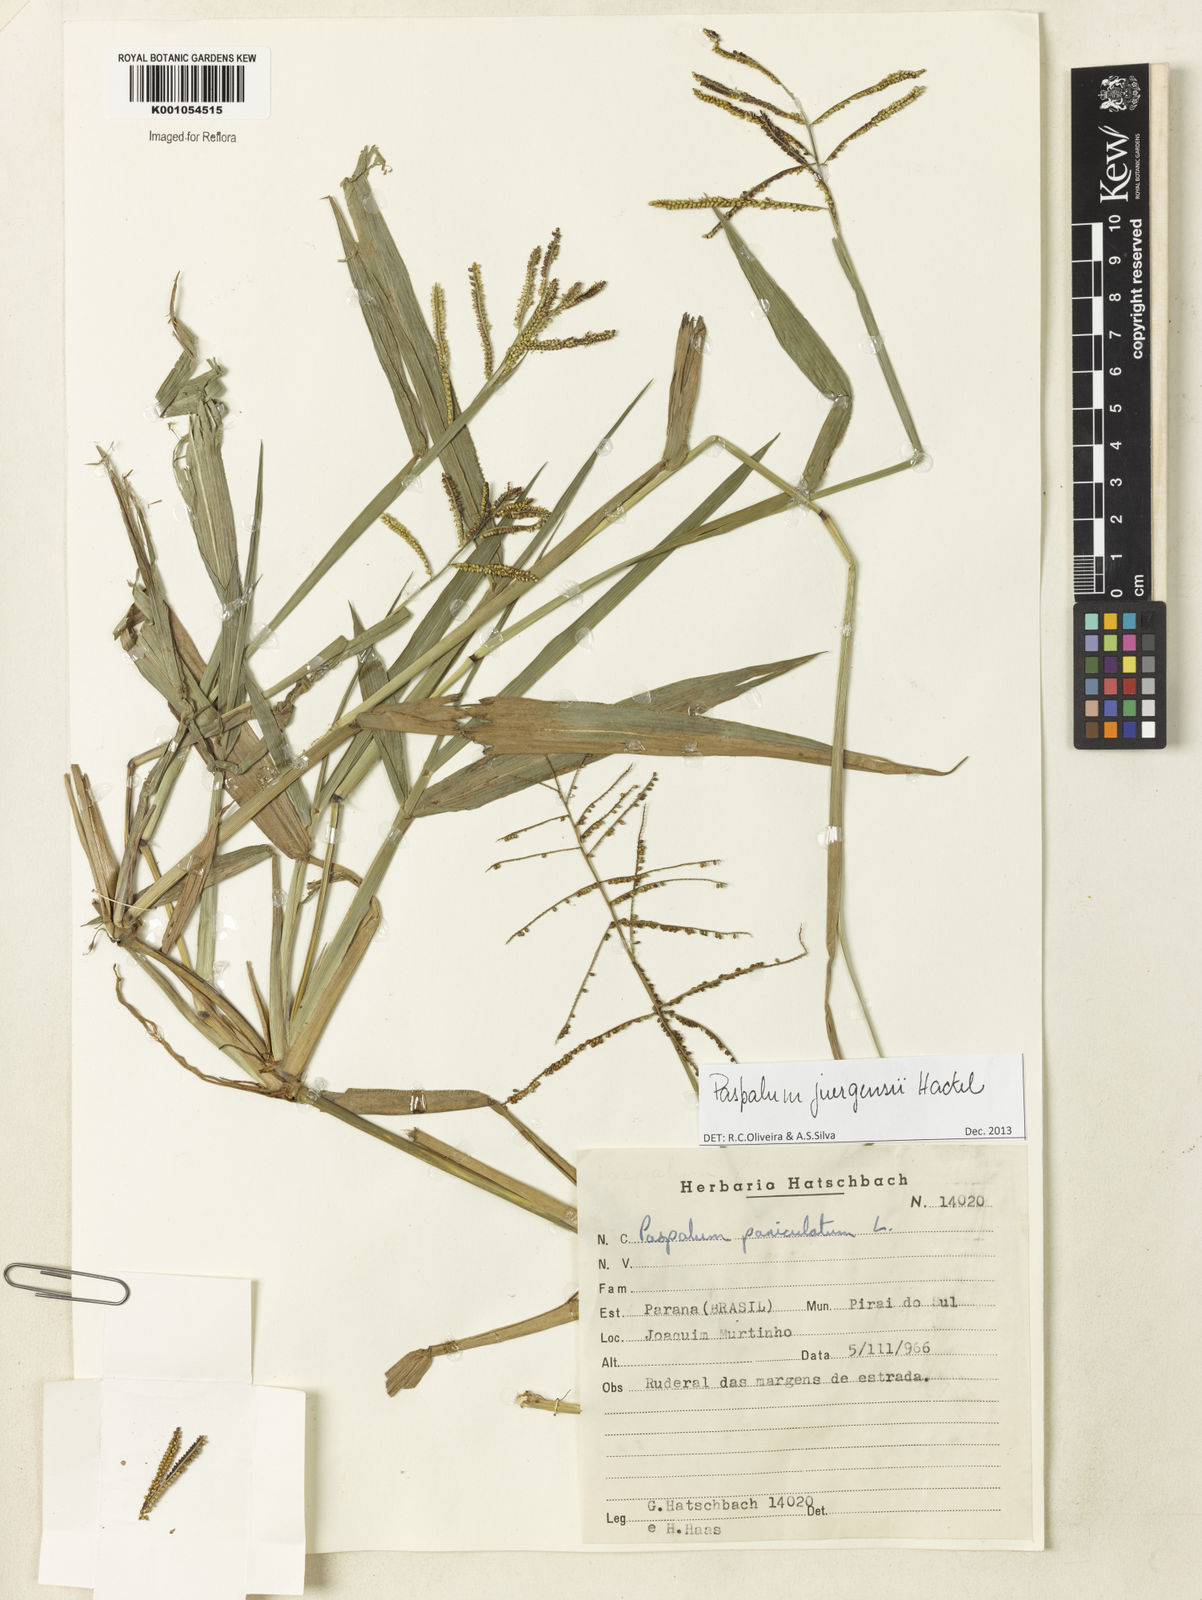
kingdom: Plantae
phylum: Tracheophyta
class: Liliopsida
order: Poales
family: Poaceae
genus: Paspalum
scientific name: Paspalum juergensii
